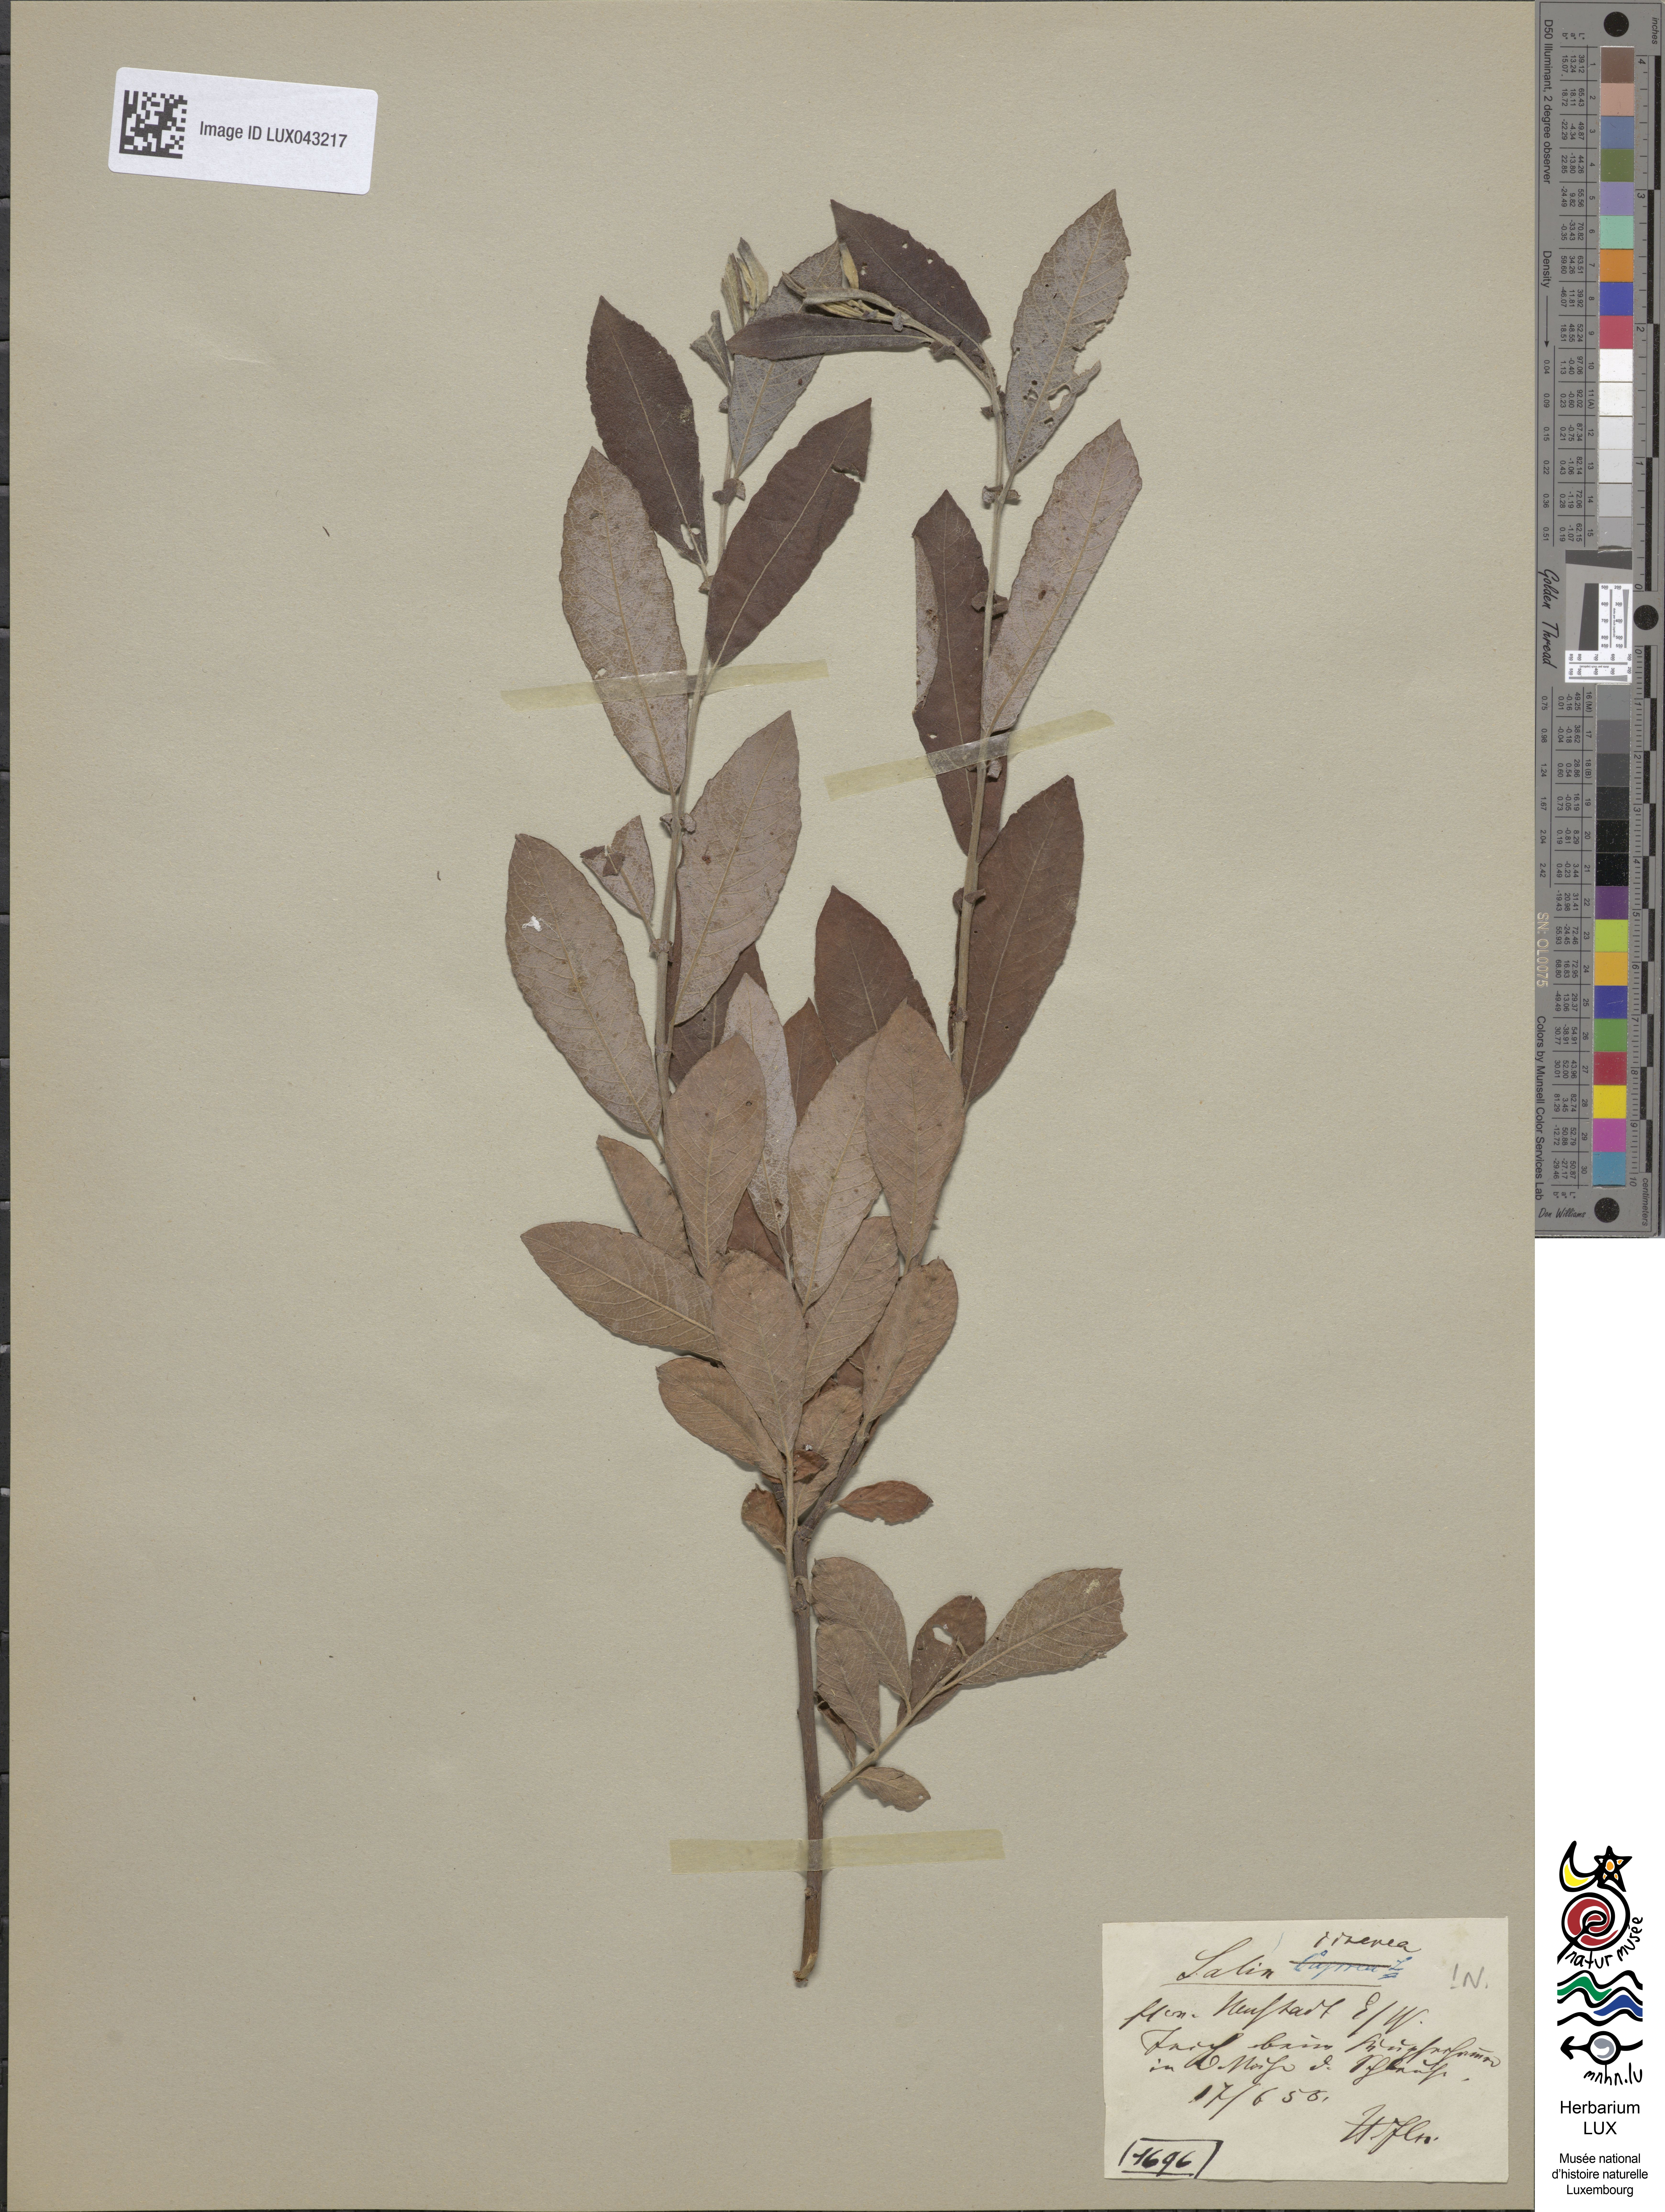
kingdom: Plantae
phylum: Tracheophyta
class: Magnoliopsida
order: Malpighiales
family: Salicaceae
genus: Salix
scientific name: Salix cinerea
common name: Common sallow
